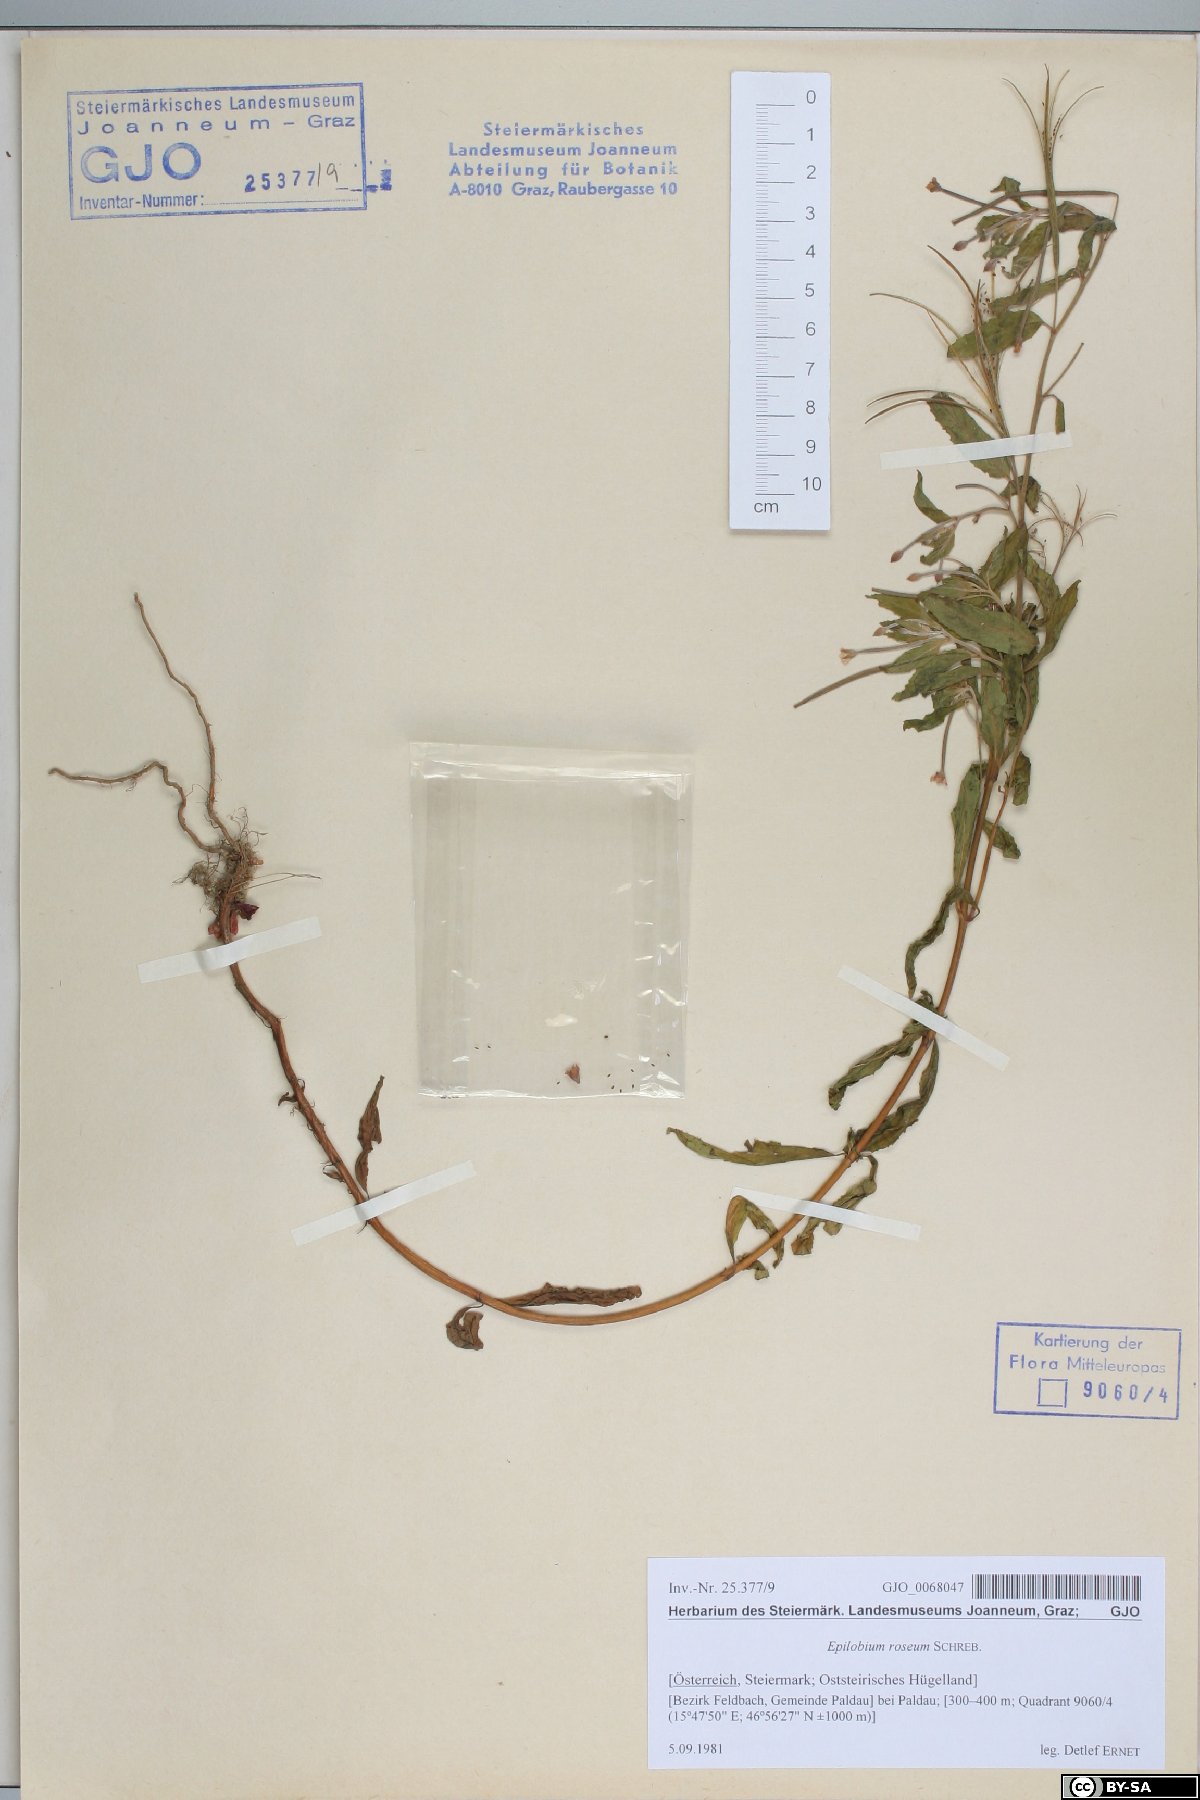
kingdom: Plantae
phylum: Tracheophyta
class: Magnoliopsida
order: Myrtales
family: Onagraceae
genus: Epilobium
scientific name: Epilobium roseum
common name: Pale willowherb
